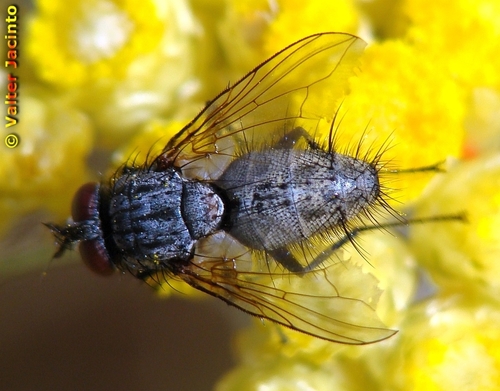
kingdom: Animalia
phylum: Arthropoda
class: Insecta
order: Diptera
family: Tachinidae
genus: Bithia
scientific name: Bithia
